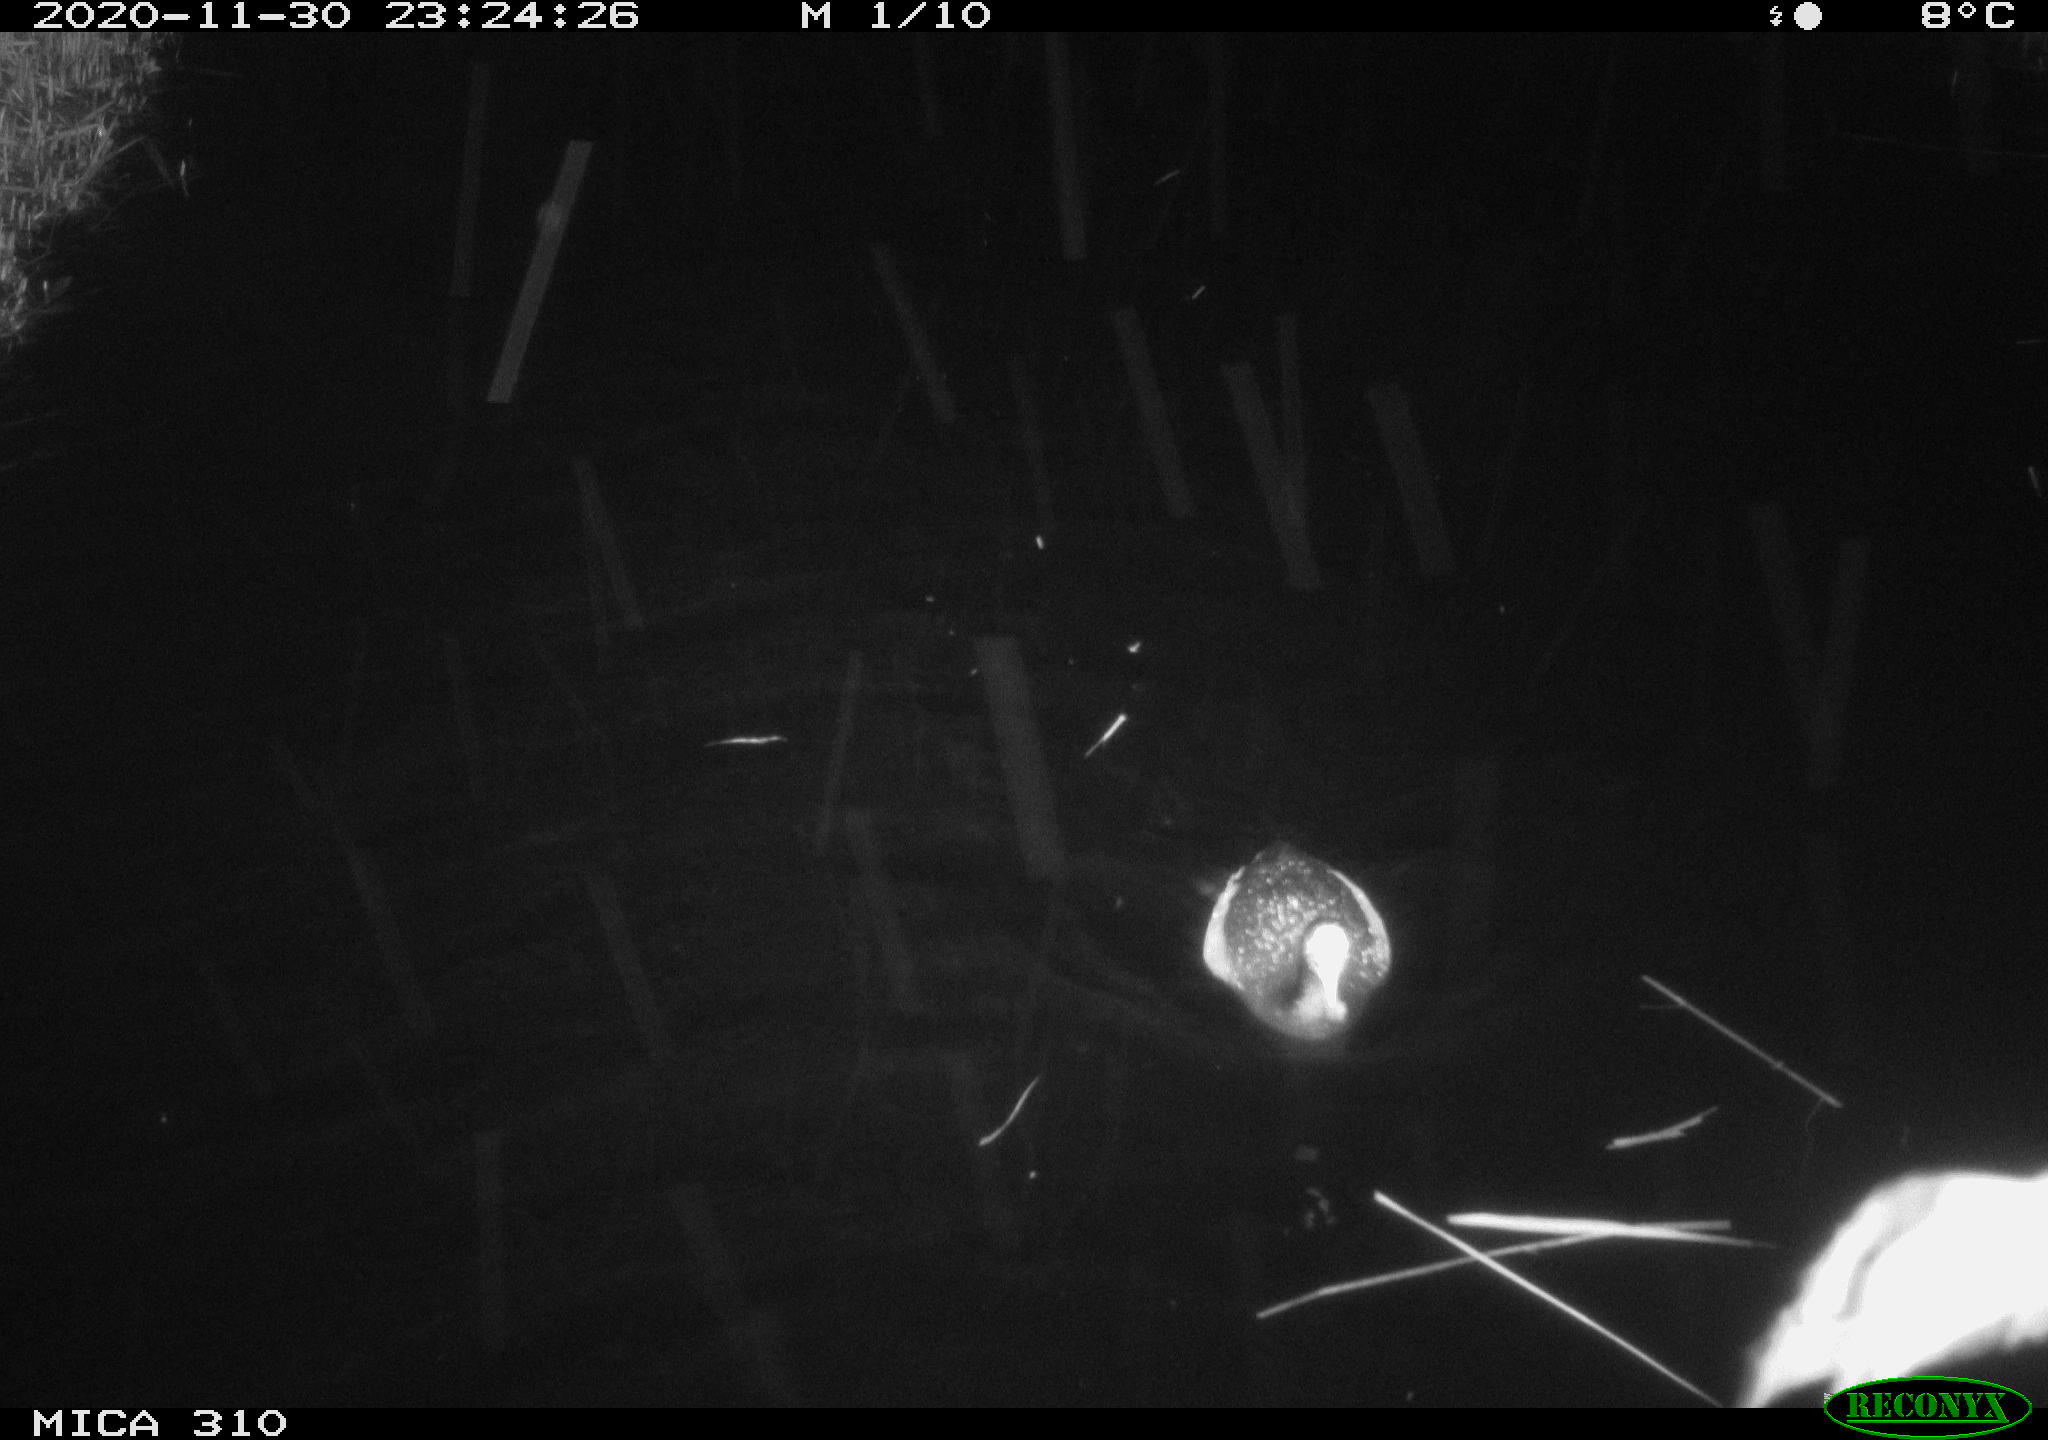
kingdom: Animalia
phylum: Chordata
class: Aves
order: Gruiformes
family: Rallidae
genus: Fulica
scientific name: Fulica atra
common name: Eurasian coot
